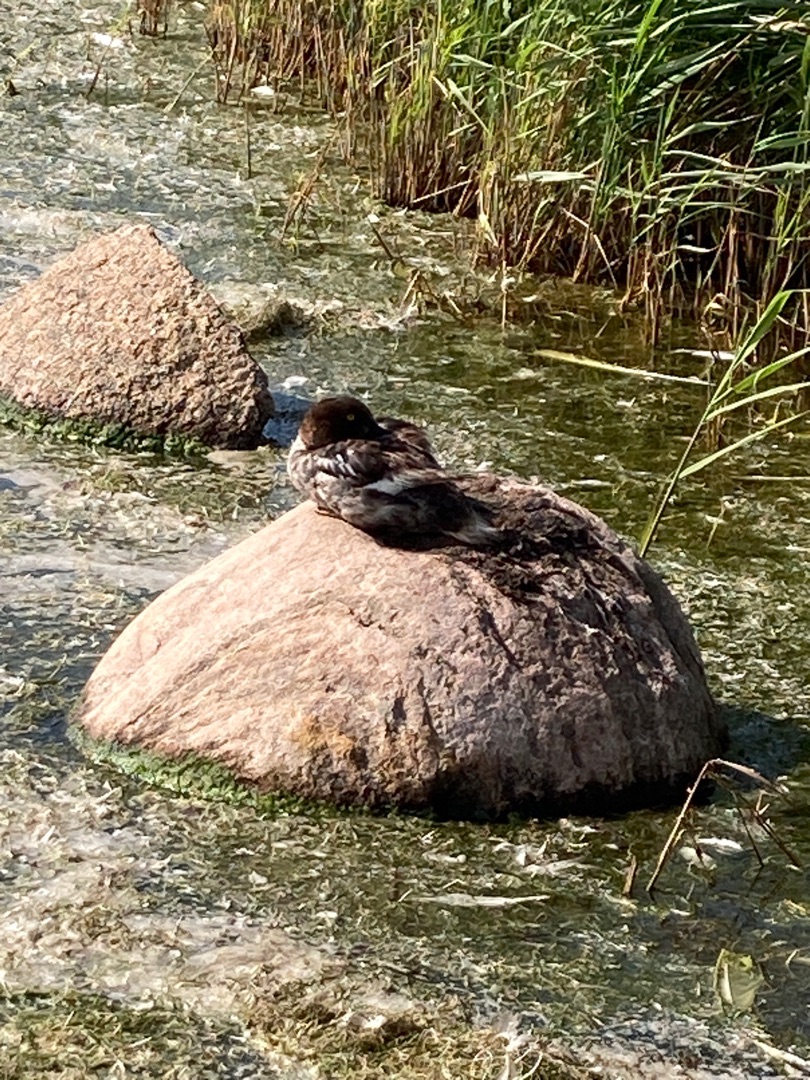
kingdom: Animalia
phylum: Chordata
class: Aves
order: Anseriformes
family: Anatidae
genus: Bucephala
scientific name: Bucephala clangula
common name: Hvinand
